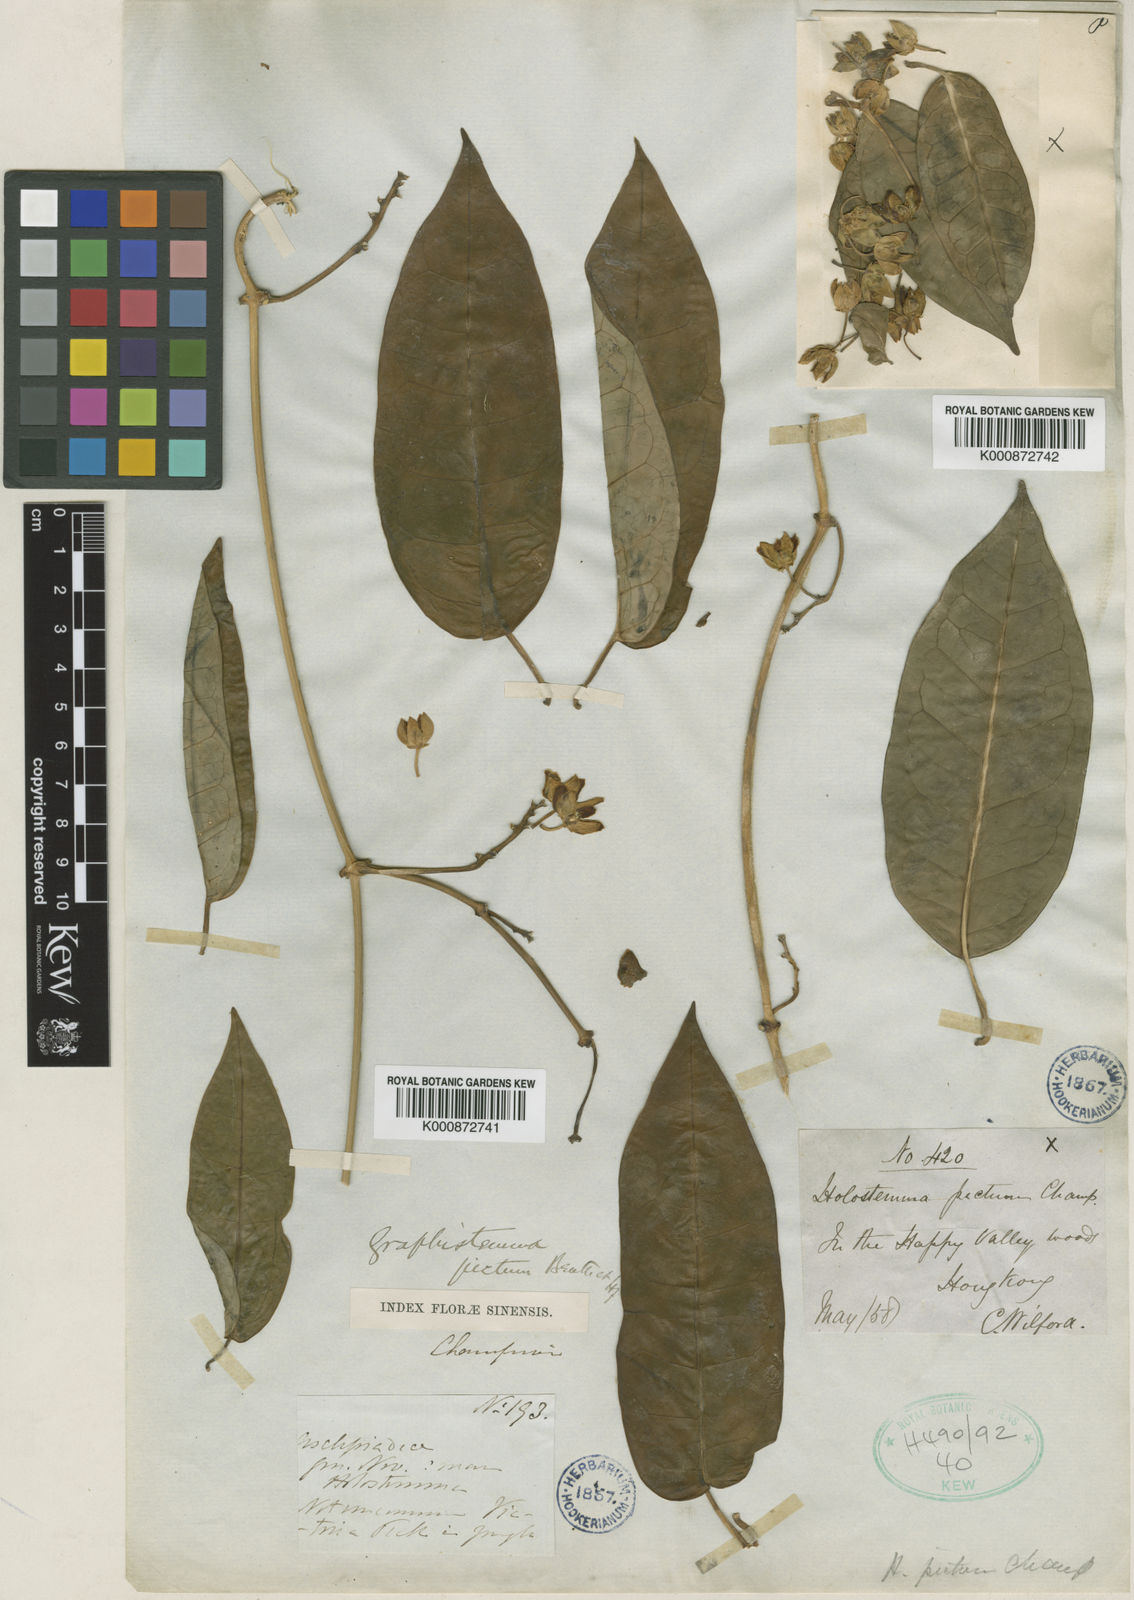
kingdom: Plantae
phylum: Tracheophyta
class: Magnoliopsida
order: Gentianales
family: Apocynaceae
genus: Cynanchum
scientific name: Cynanchum graphistemmatoides
